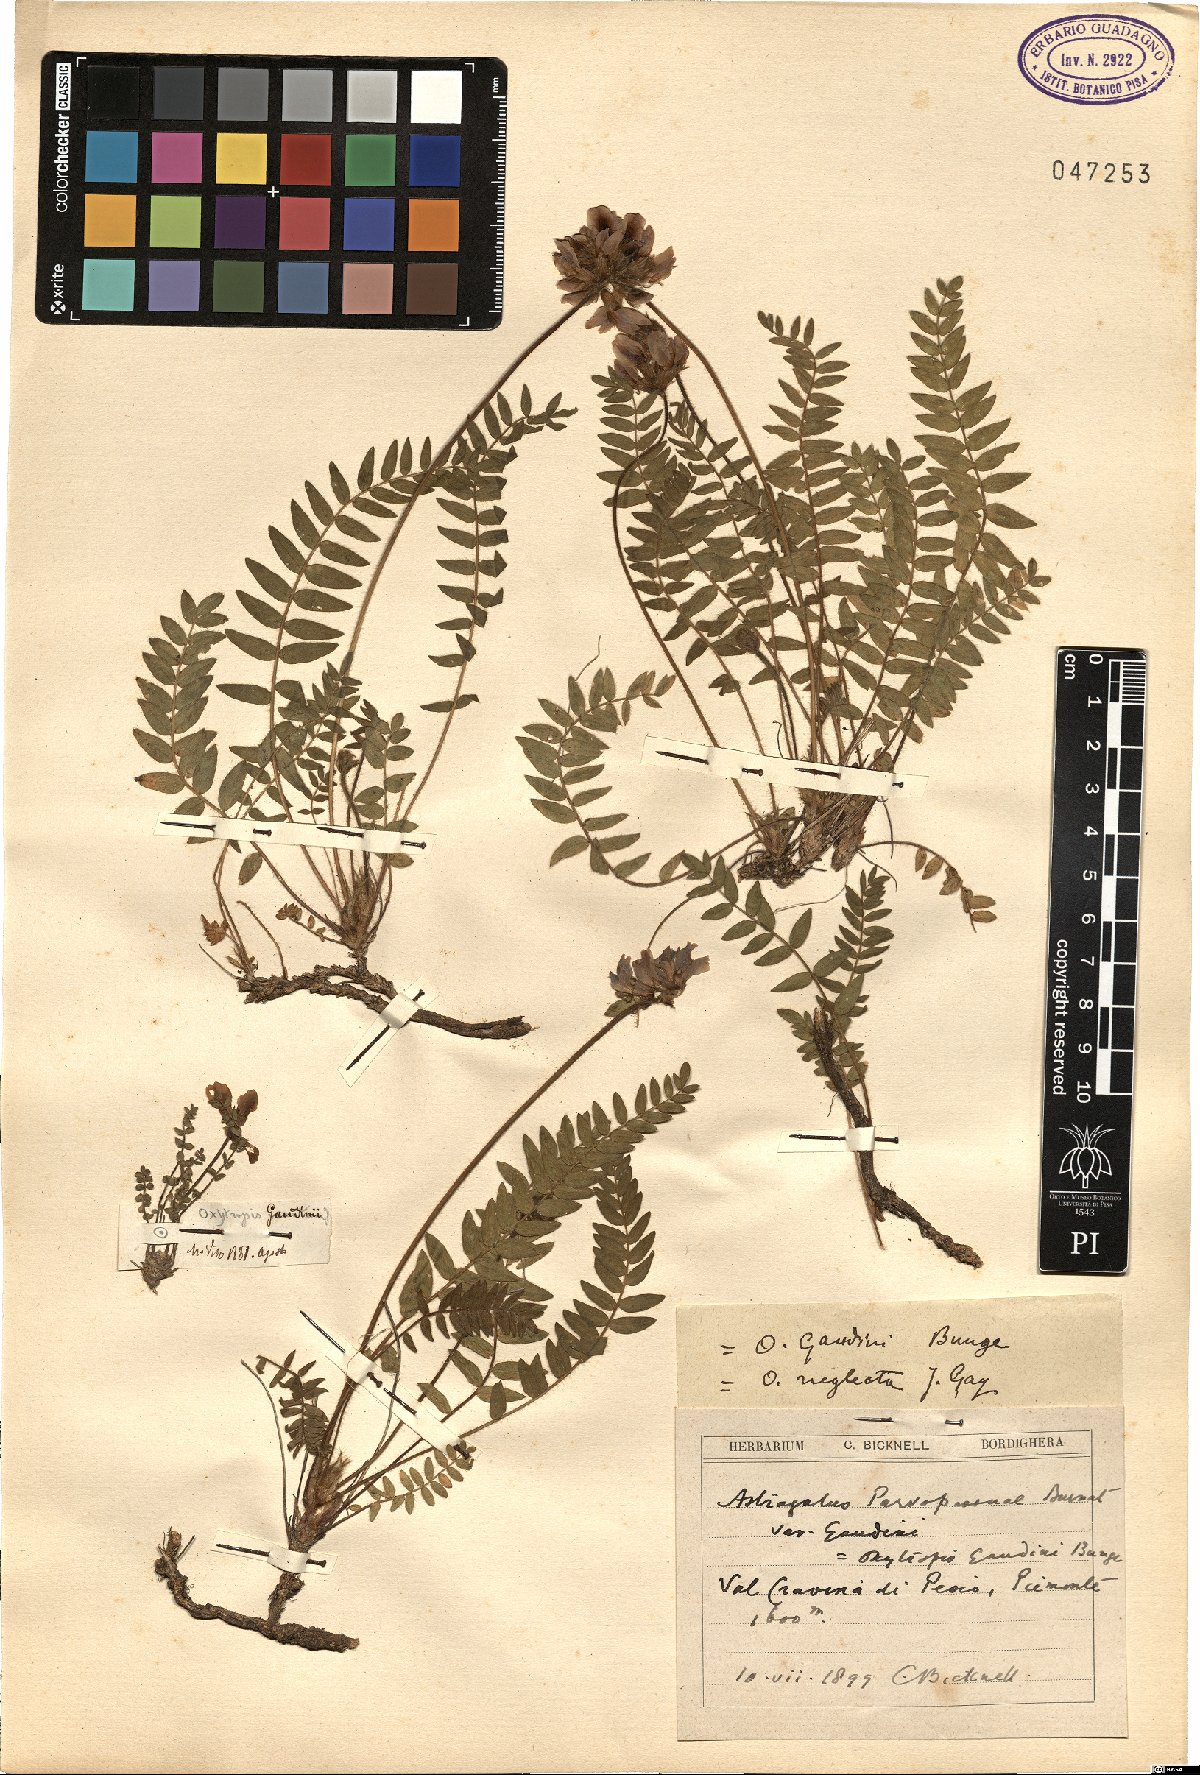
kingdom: Plantae
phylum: Tracheophyta
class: Magnoliopsida
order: Fabales
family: Fabaceae
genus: Oxytropis
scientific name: Oxytropis neglecta
